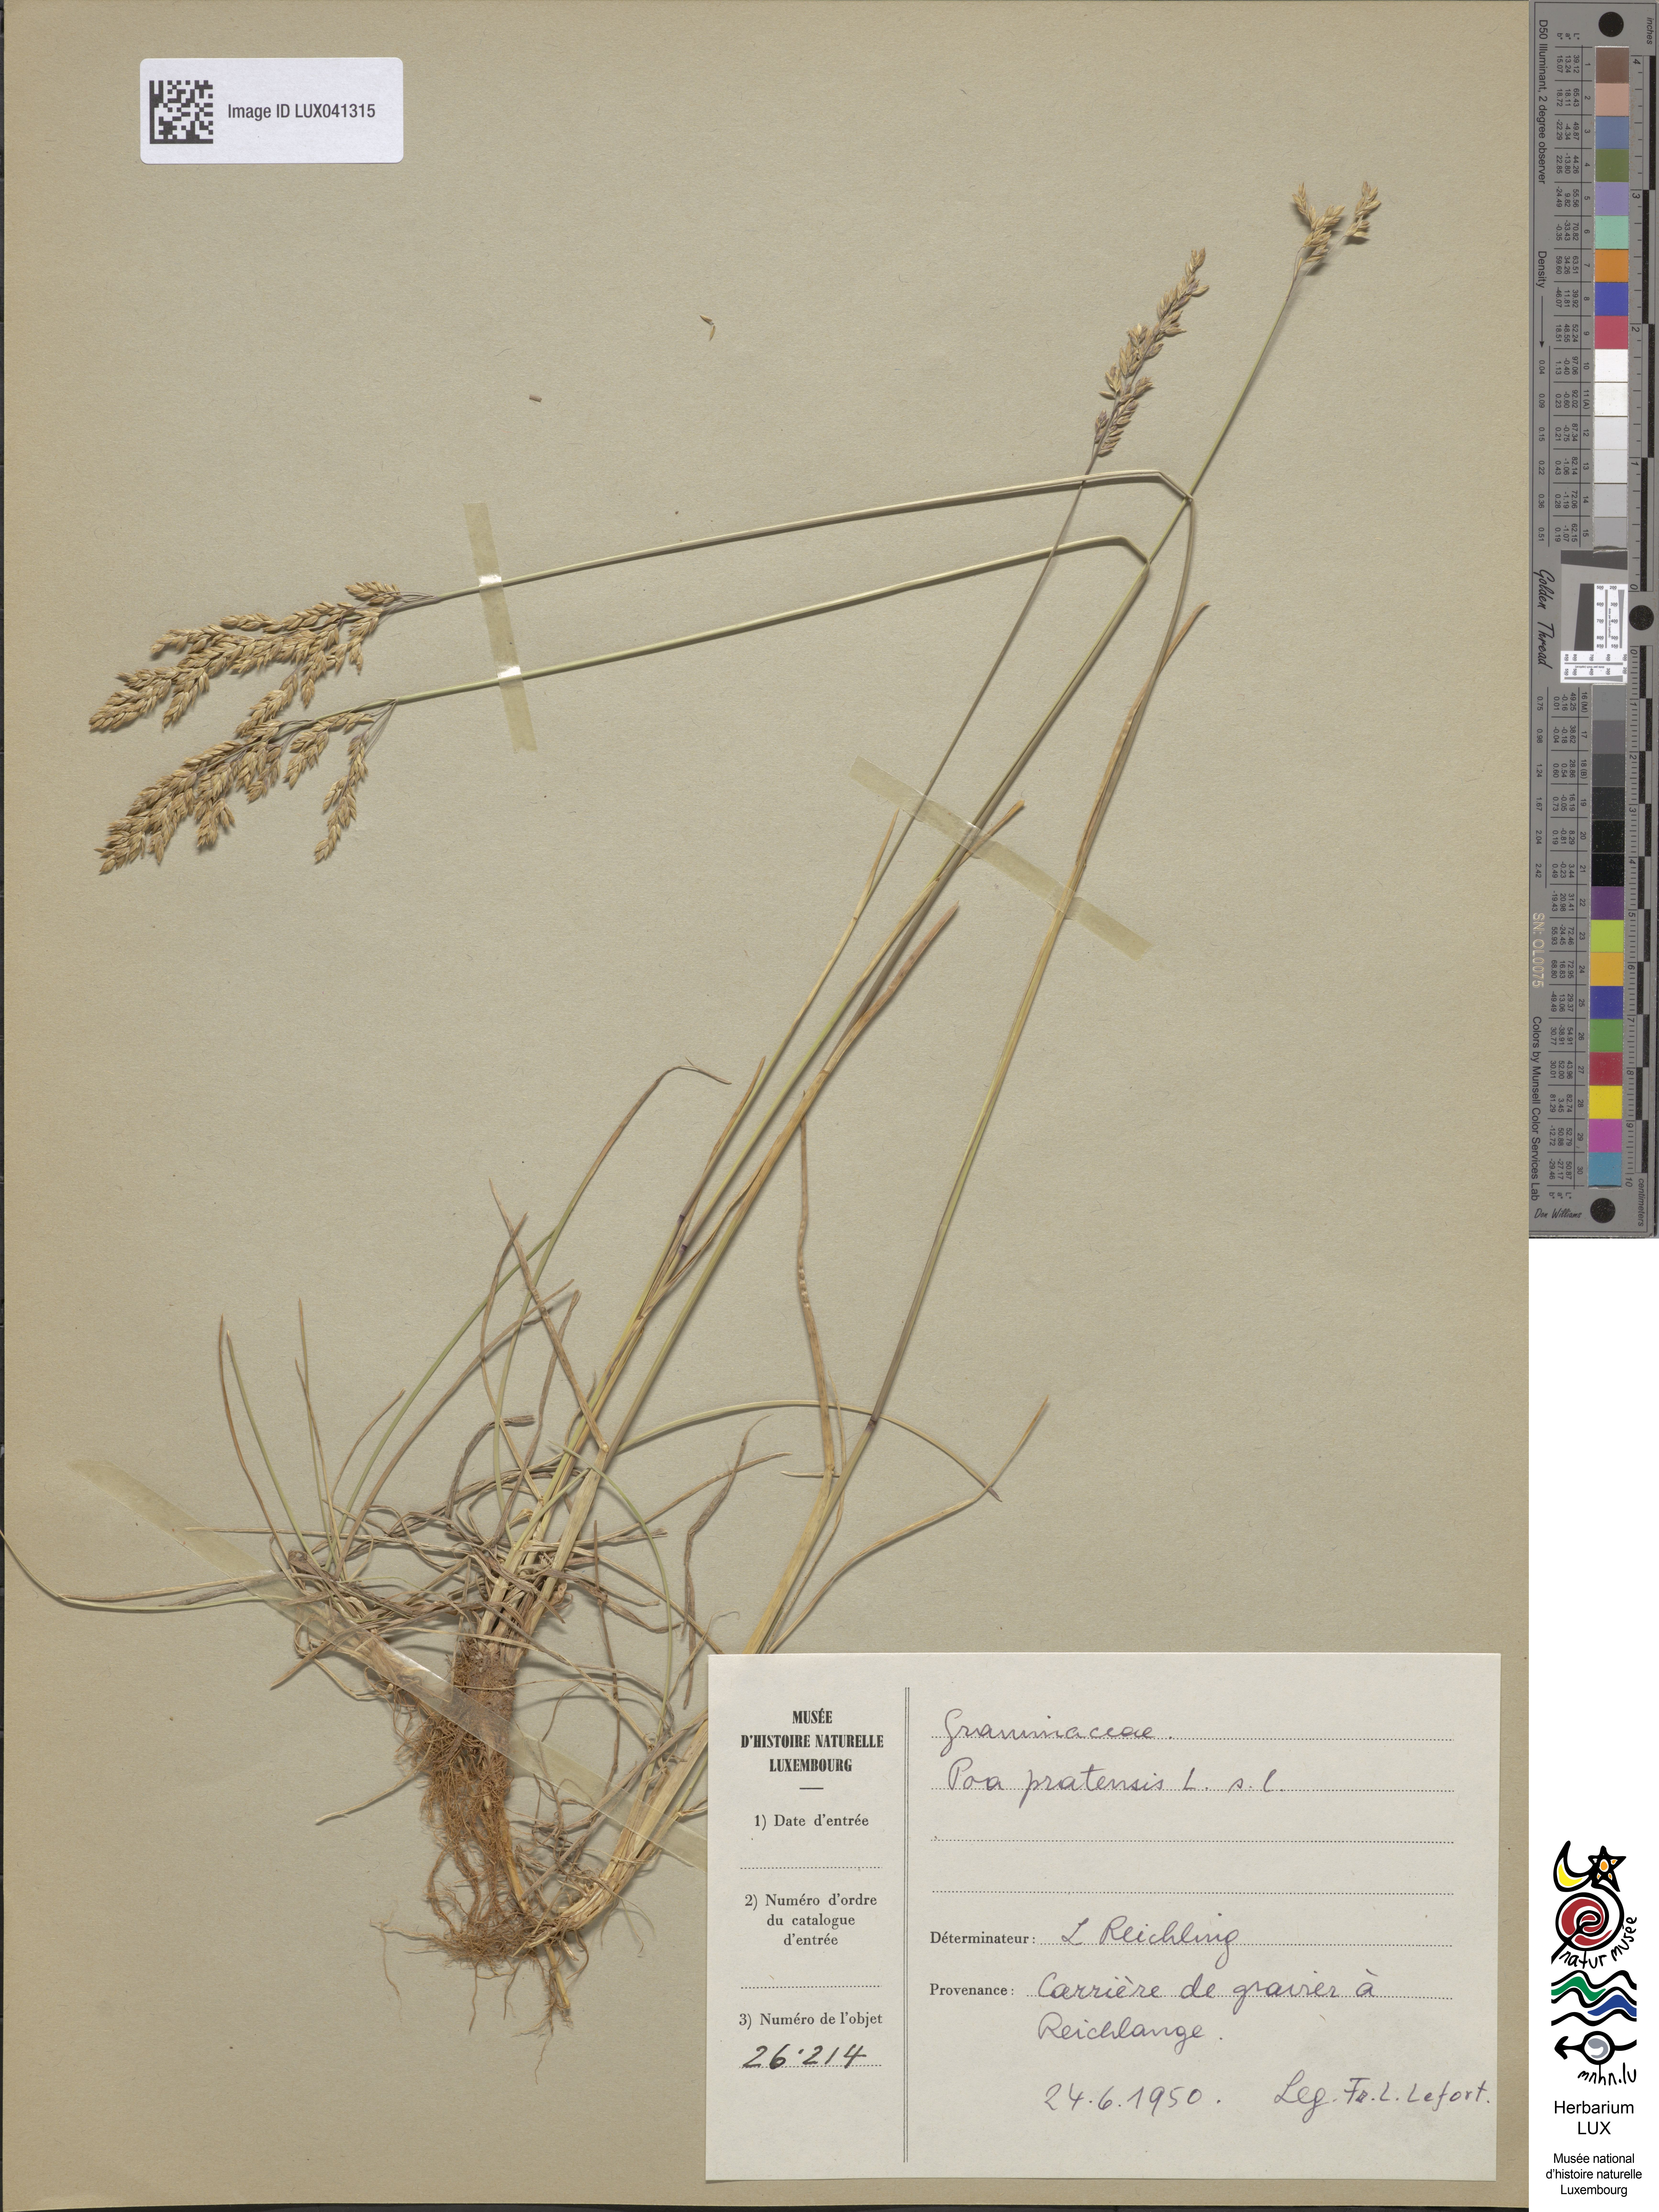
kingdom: Plantae
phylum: Tracheophyta
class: Liliopsida
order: Poales
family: Poaceae
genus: Poa
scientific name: Poa pratensis
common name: Kentucky bluegrass
